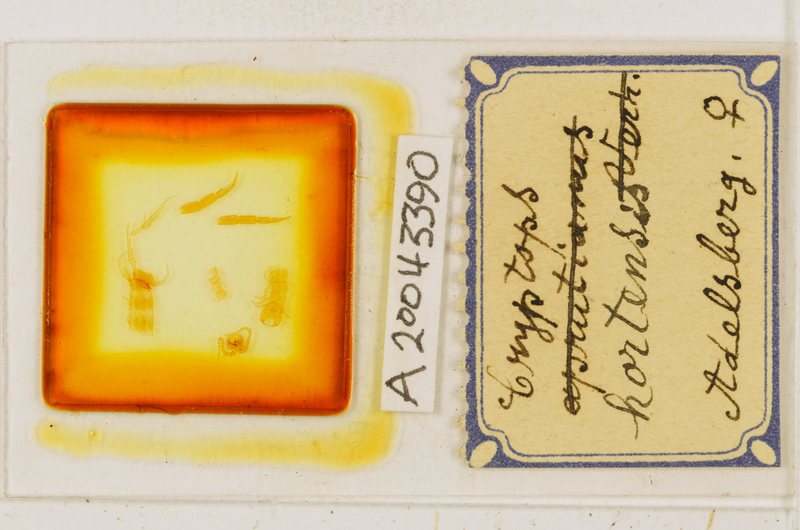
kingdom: Animalia
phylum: Arthropoda
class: Chilopoda
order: Scolopendromorpha
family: Cryptopidae
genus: Cryptops
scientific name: Cryptops hortensis
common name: Centipede
